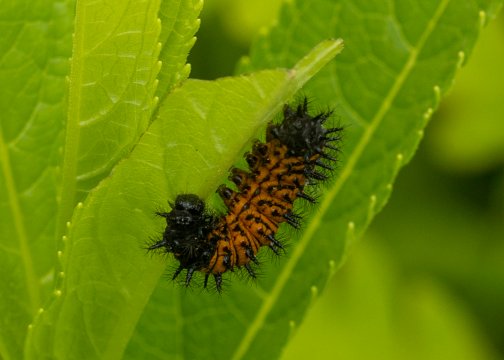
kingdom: Animalia
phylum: Arthropoda
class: Insecta
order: Lepidoptera
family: Nymphalidae
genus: Euphydryas
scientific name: Euphydryas phaeton
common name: Baltimore Checkerspot
